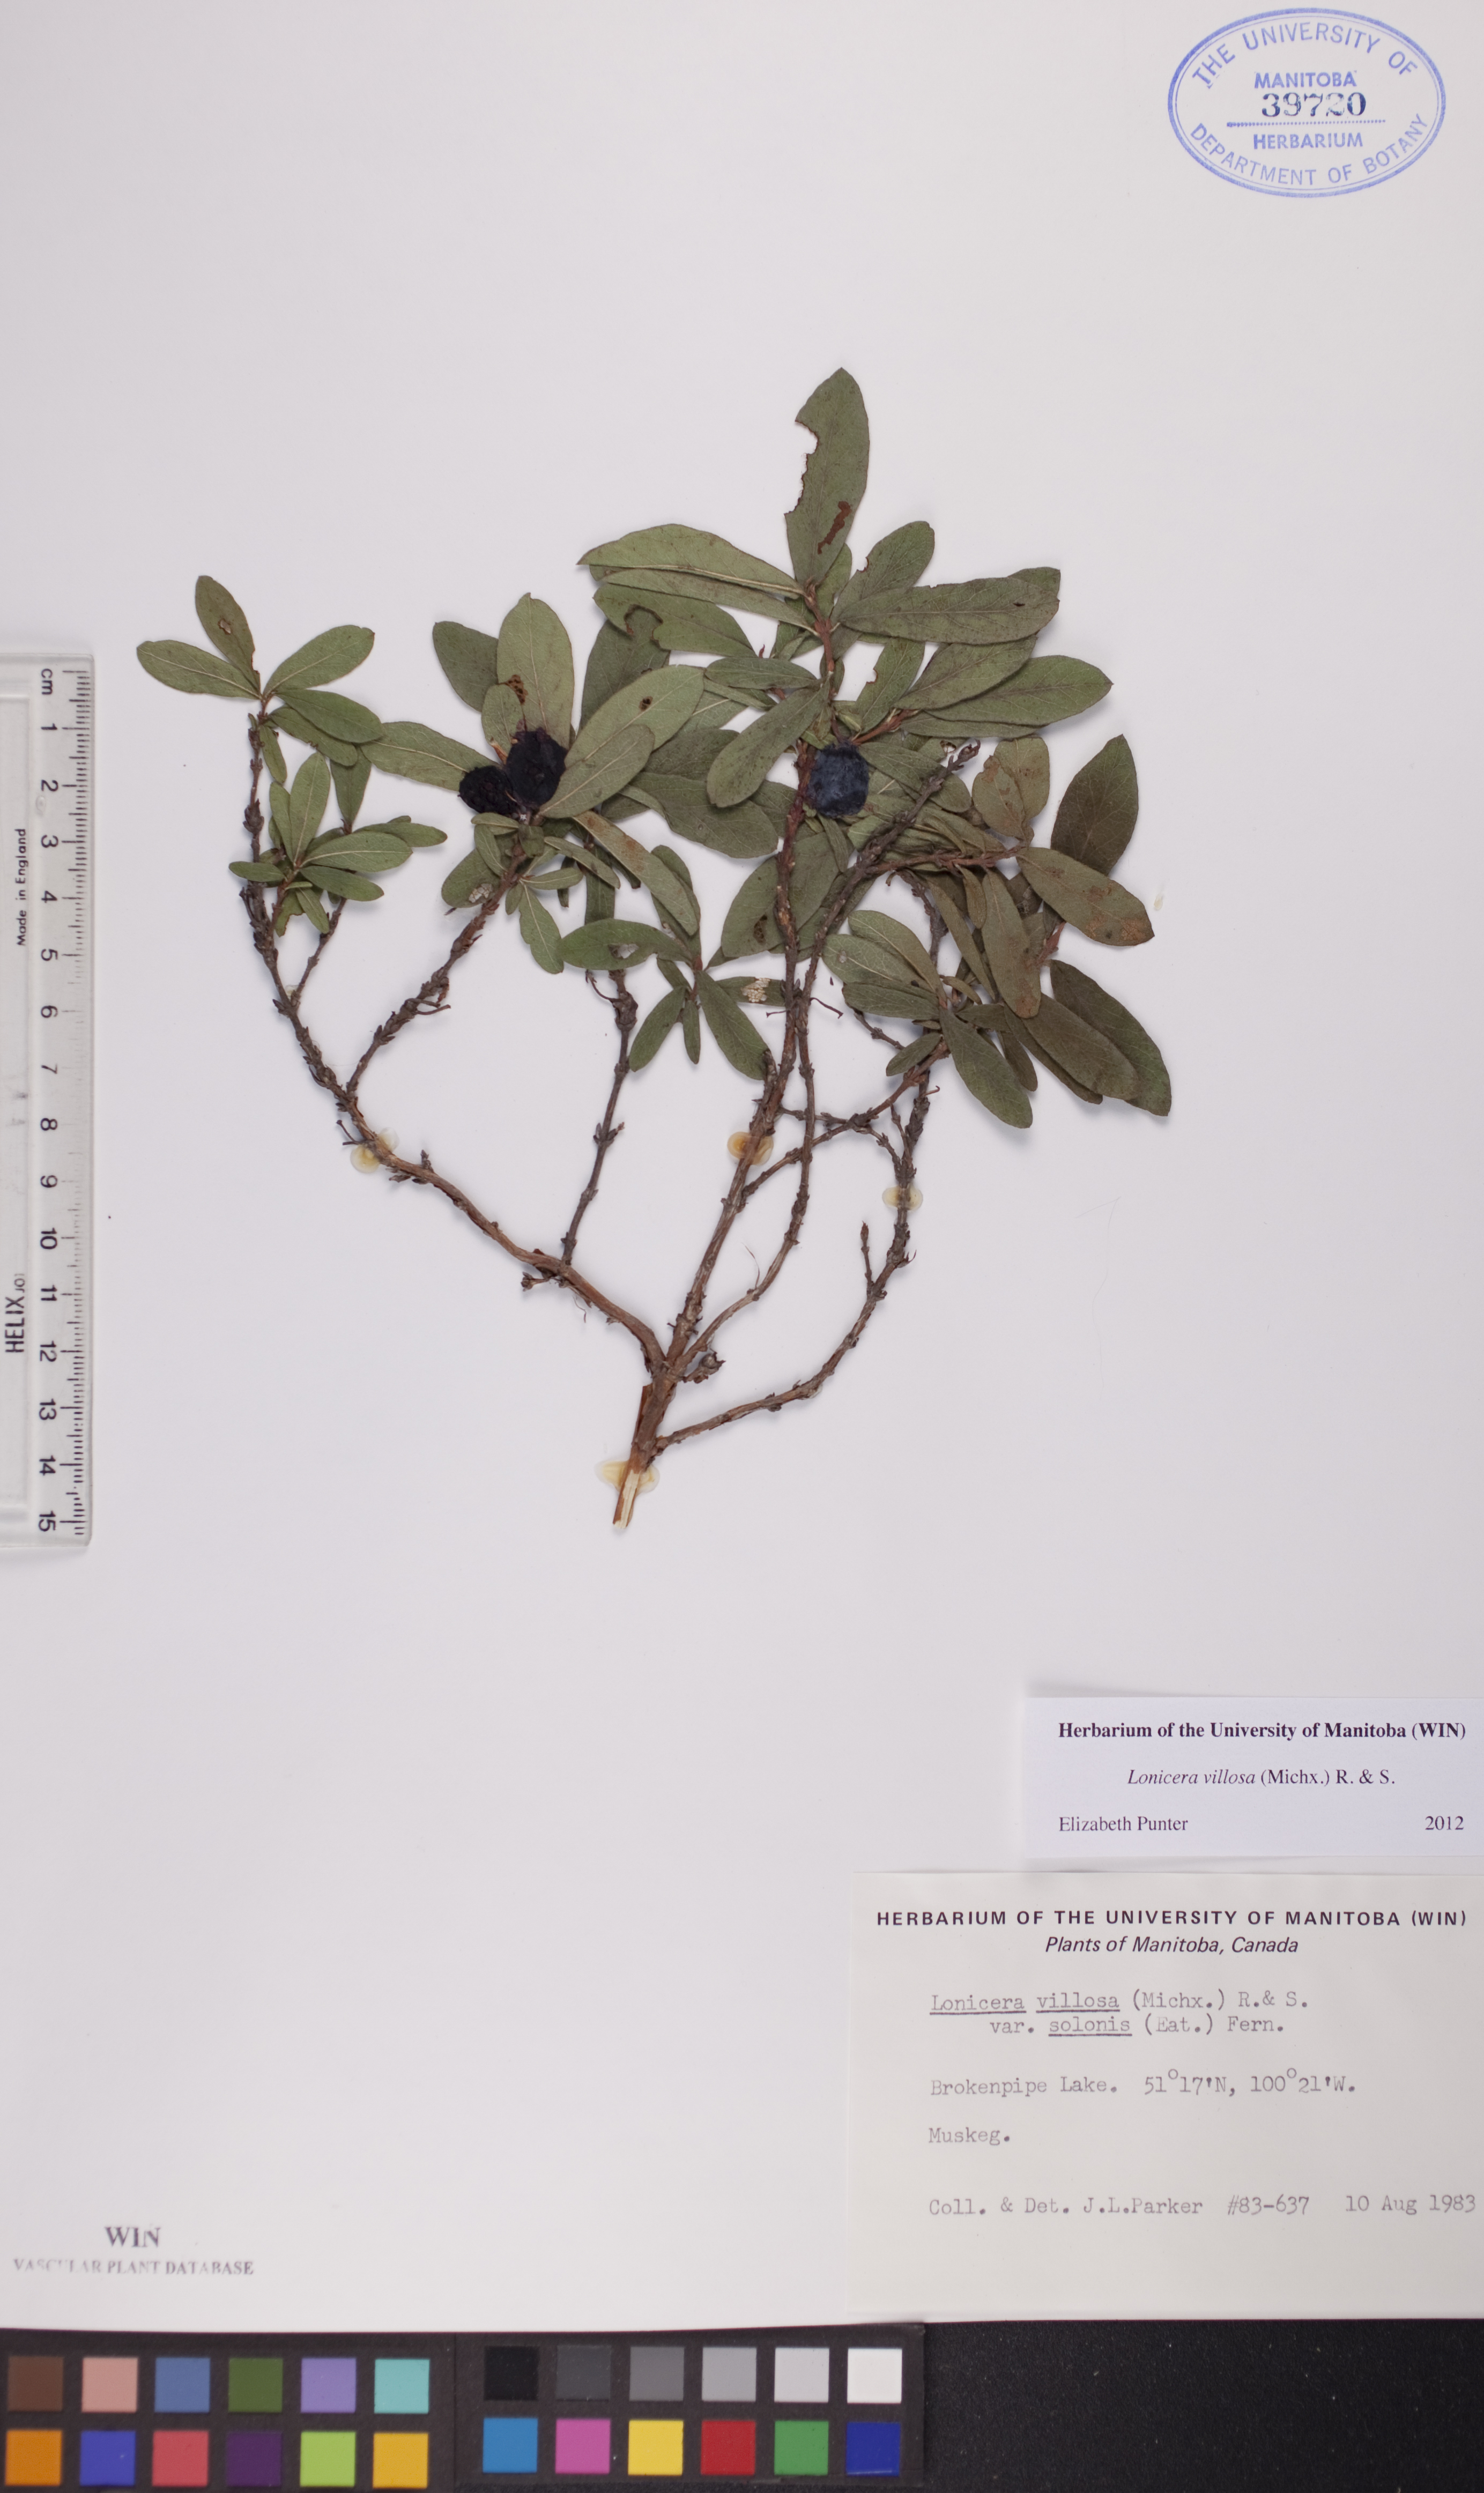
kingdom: Plantae
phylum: Tracheophyta
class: Magnoliopsida
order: Dipsacales
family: Caprifoliaceae
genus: Lonicera
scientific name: Lonicera villosa
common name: Mountain fly-honeysuckle
